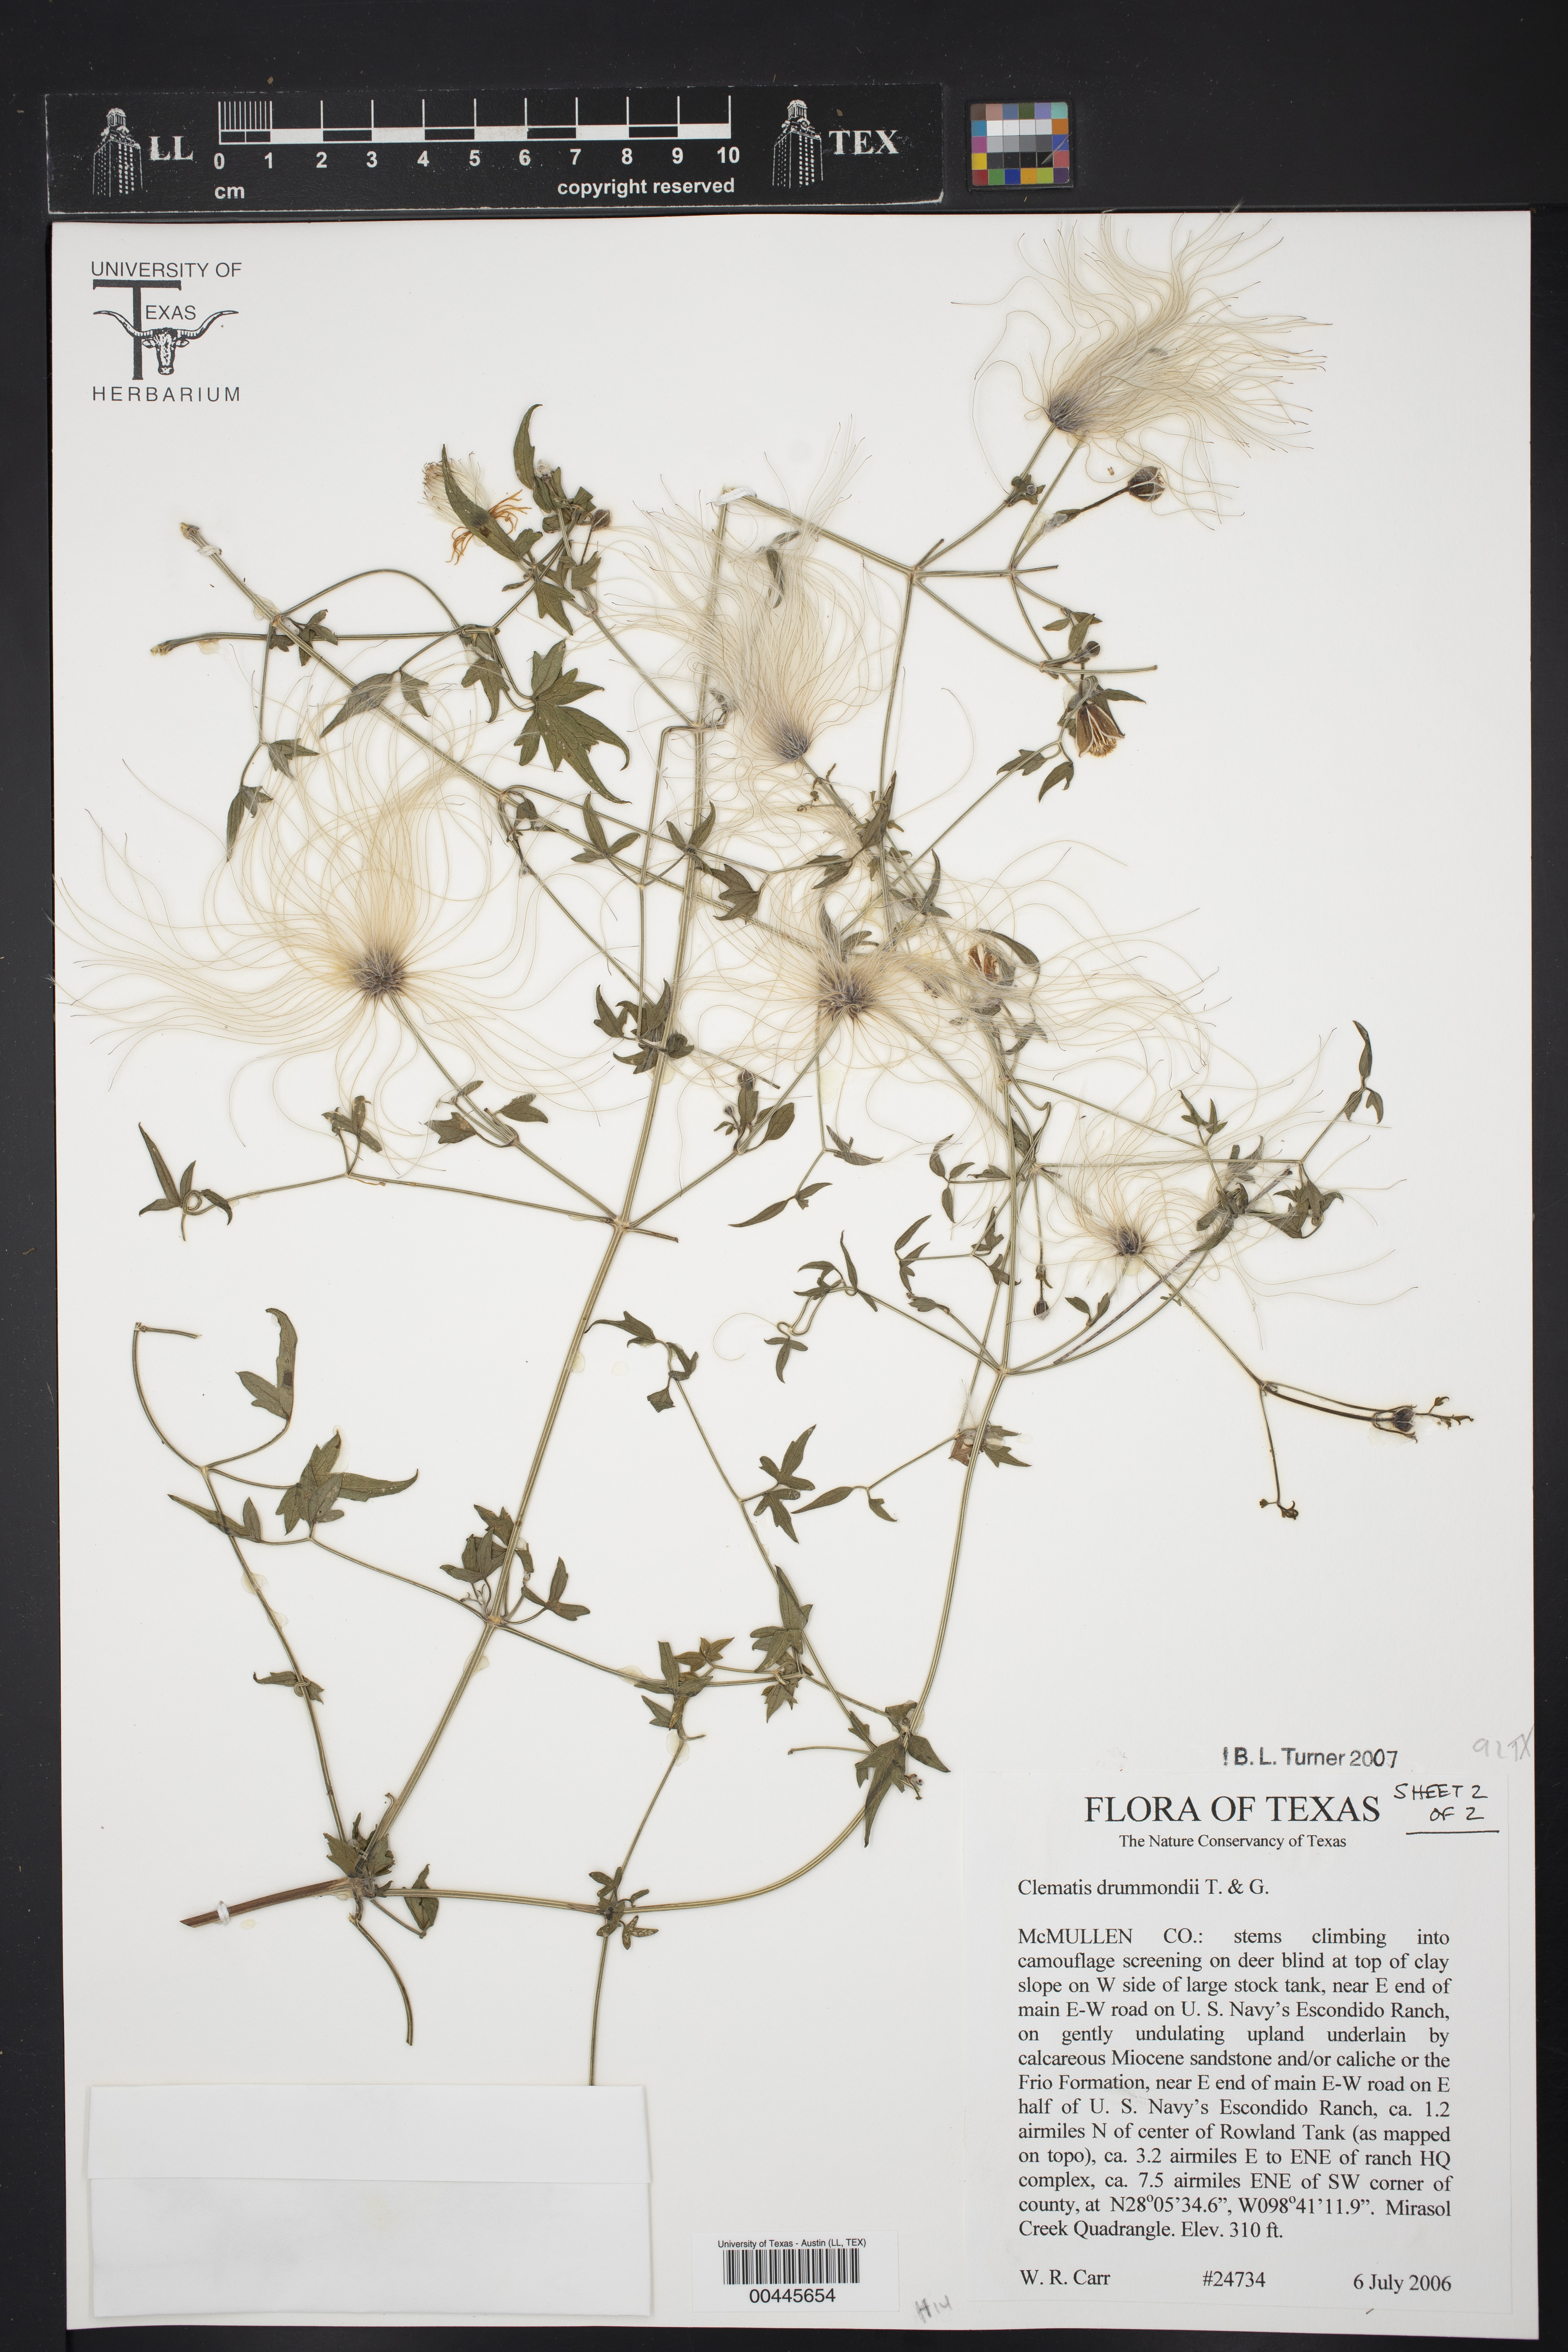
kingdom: Plantae
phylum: Tracheophyta
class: Magnoliopsida
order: Ranunculales
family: Ranunculaceae
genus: Clematis
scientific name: Clematis drummondii
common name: Texas virgin's bower
